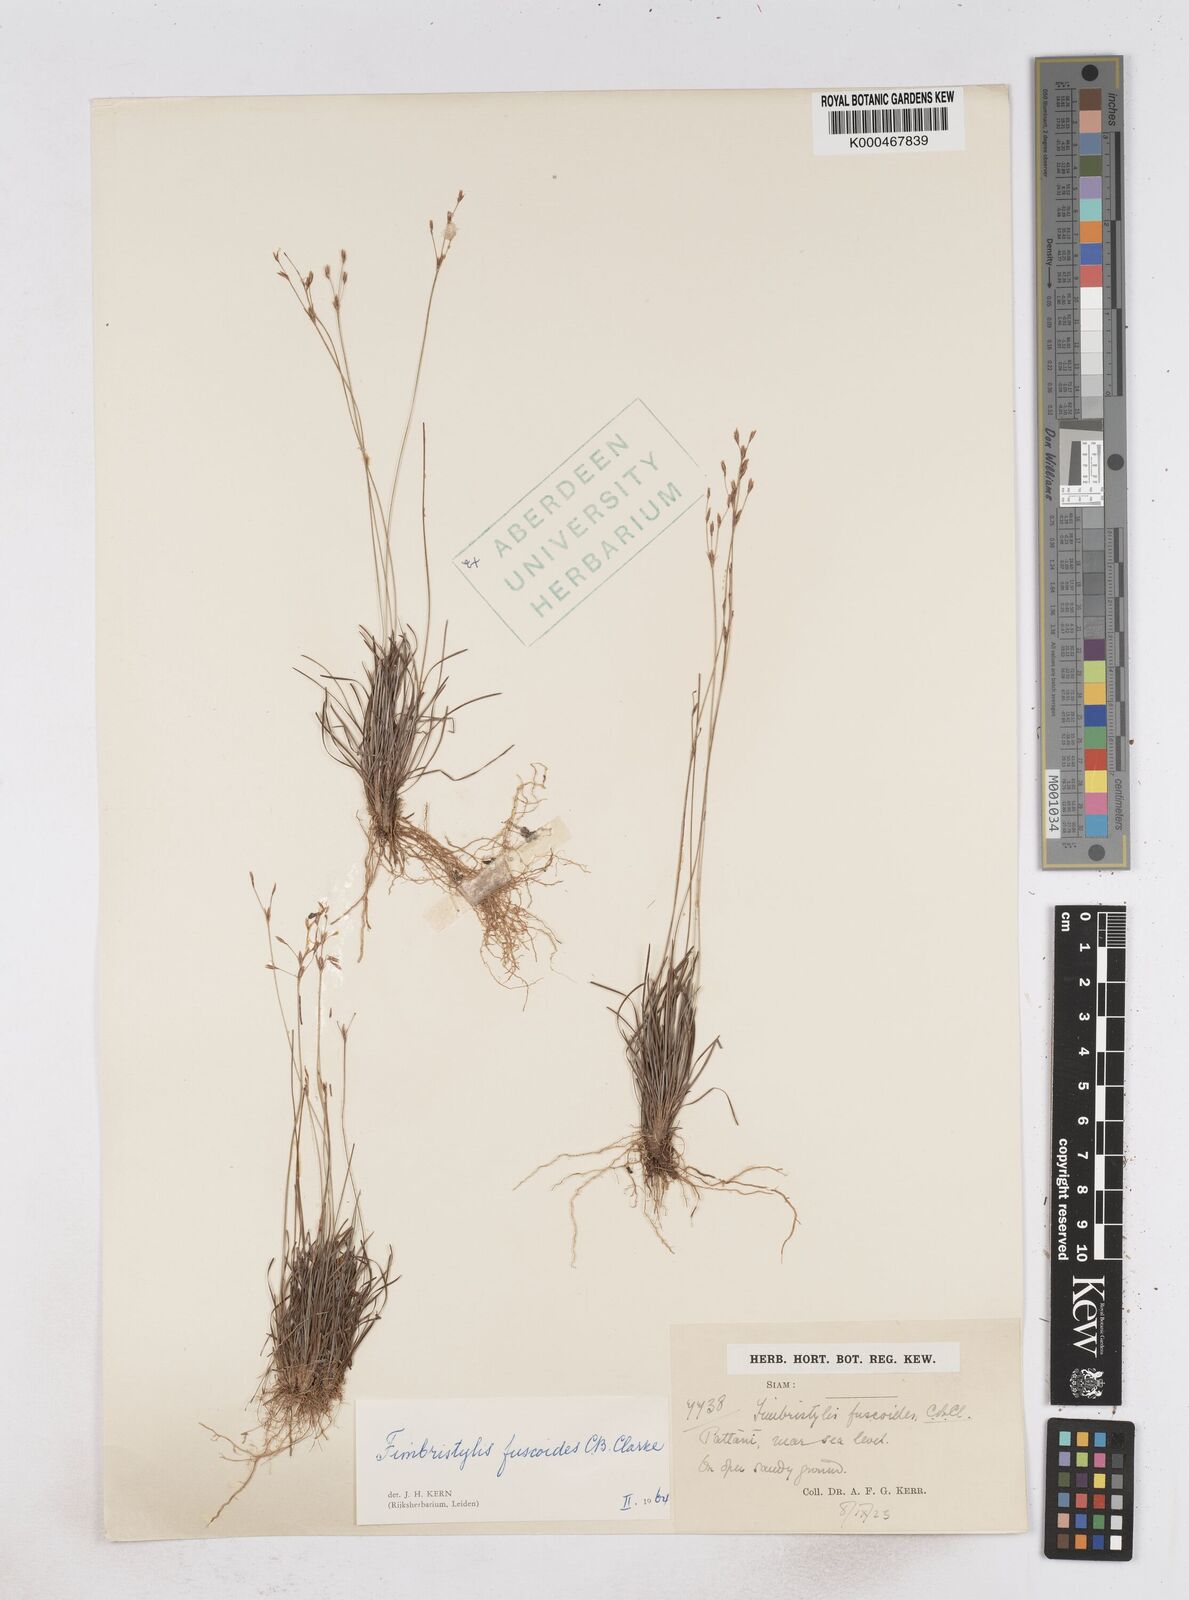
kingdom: Plantae
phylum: Tracheophyta
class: Liliopsida
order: Poales
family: Cyperaceae
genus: Fimbristylis
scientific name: Fimbristylis fuscoides
